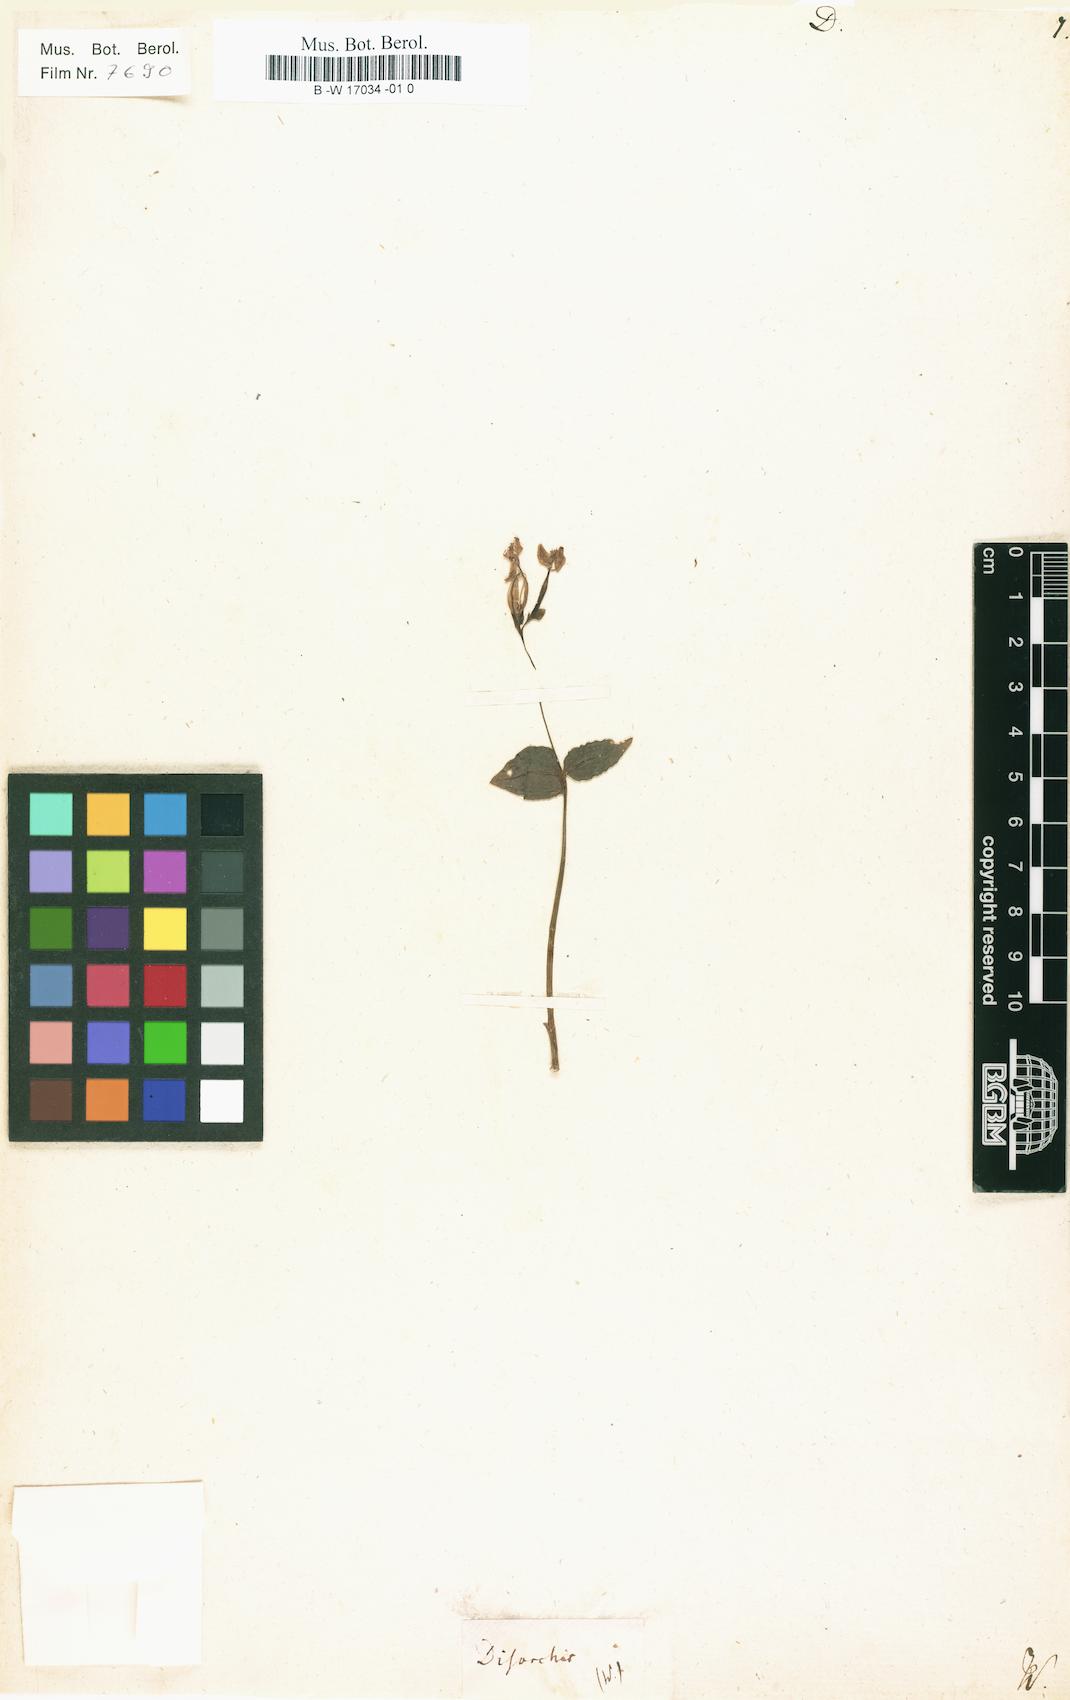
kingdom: Plantae
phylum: Tracheophyta
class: Liliopsida
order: Asparagales
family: Orchidaceae
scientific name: Orchidaceae
